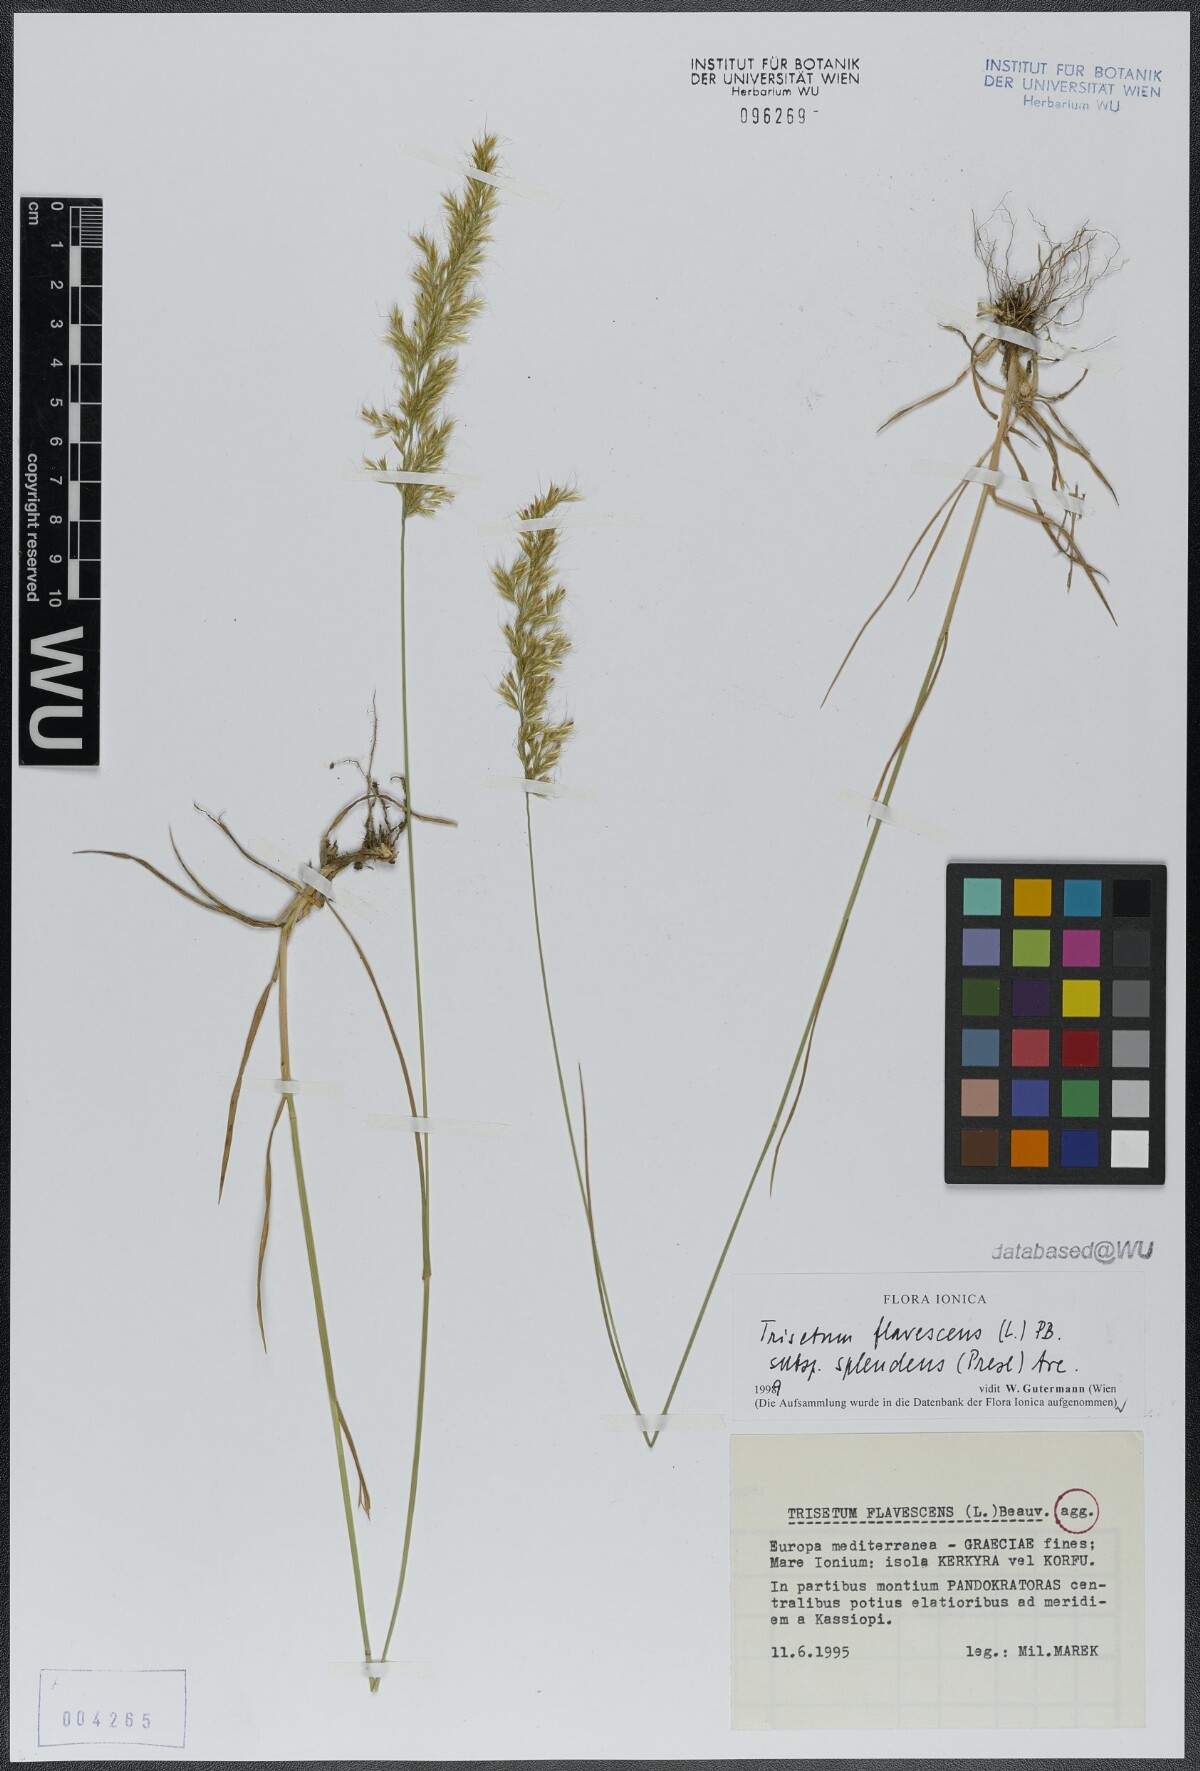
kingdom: Plantae
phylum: Tracheophyta
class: Liliopsida
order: Poales
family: Poaceae
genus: Trisetum
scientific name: Trisetum flavescens
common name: Yellow oat-grass
